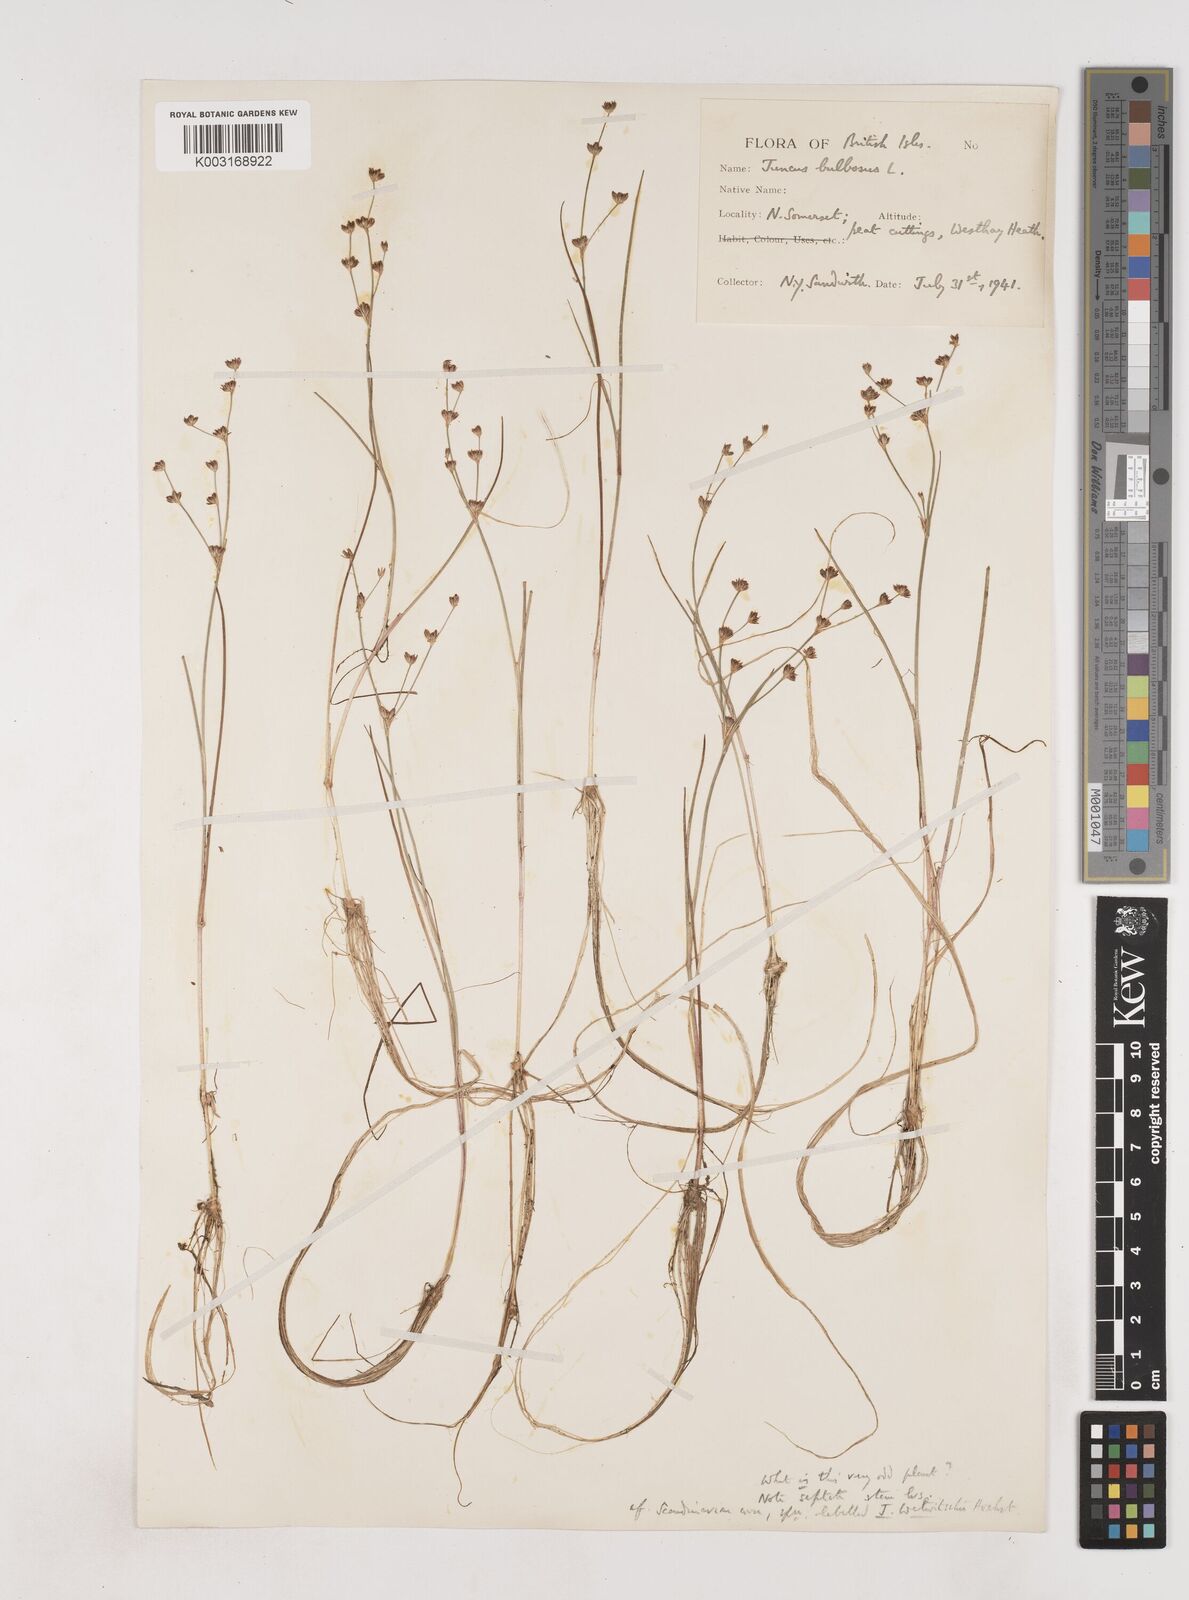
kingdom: Plantae
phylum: Tracheophyta
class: Liliopsida
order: Poales
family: Juncaceae
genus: Juncus
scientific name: Juncus bulbosus
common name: Bulbous rush
